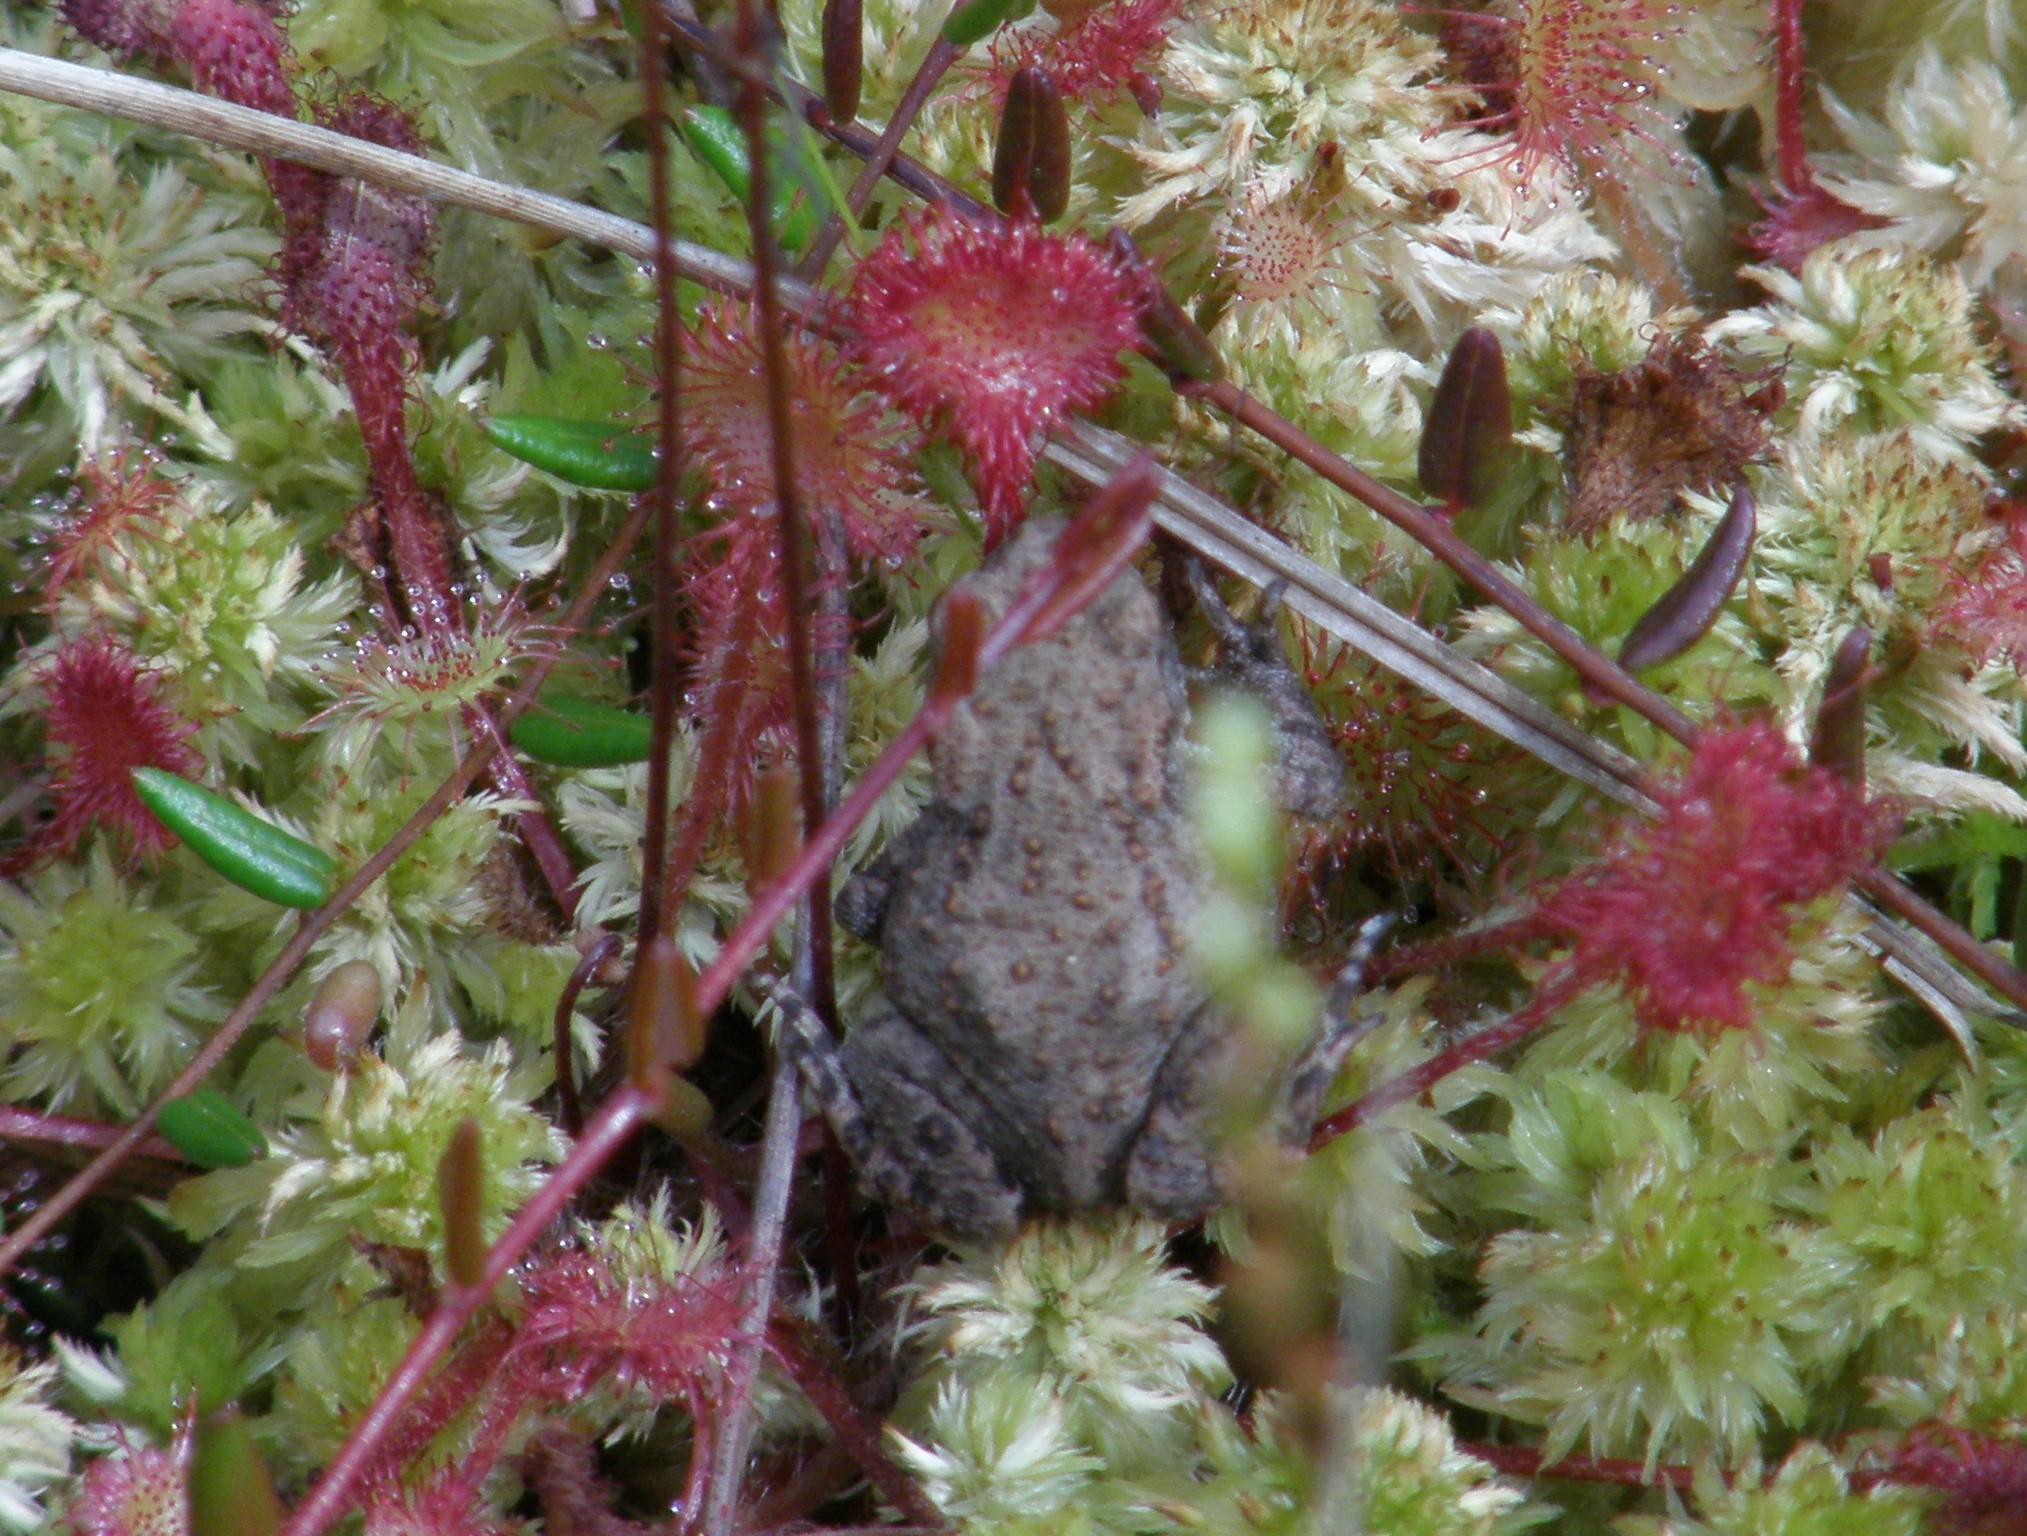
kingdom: Animalia
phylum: Chordata
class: Amphibia
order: Anura
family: Bufonidae
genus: Bufo
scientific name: Bufo bufo
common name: Skrubtudse
